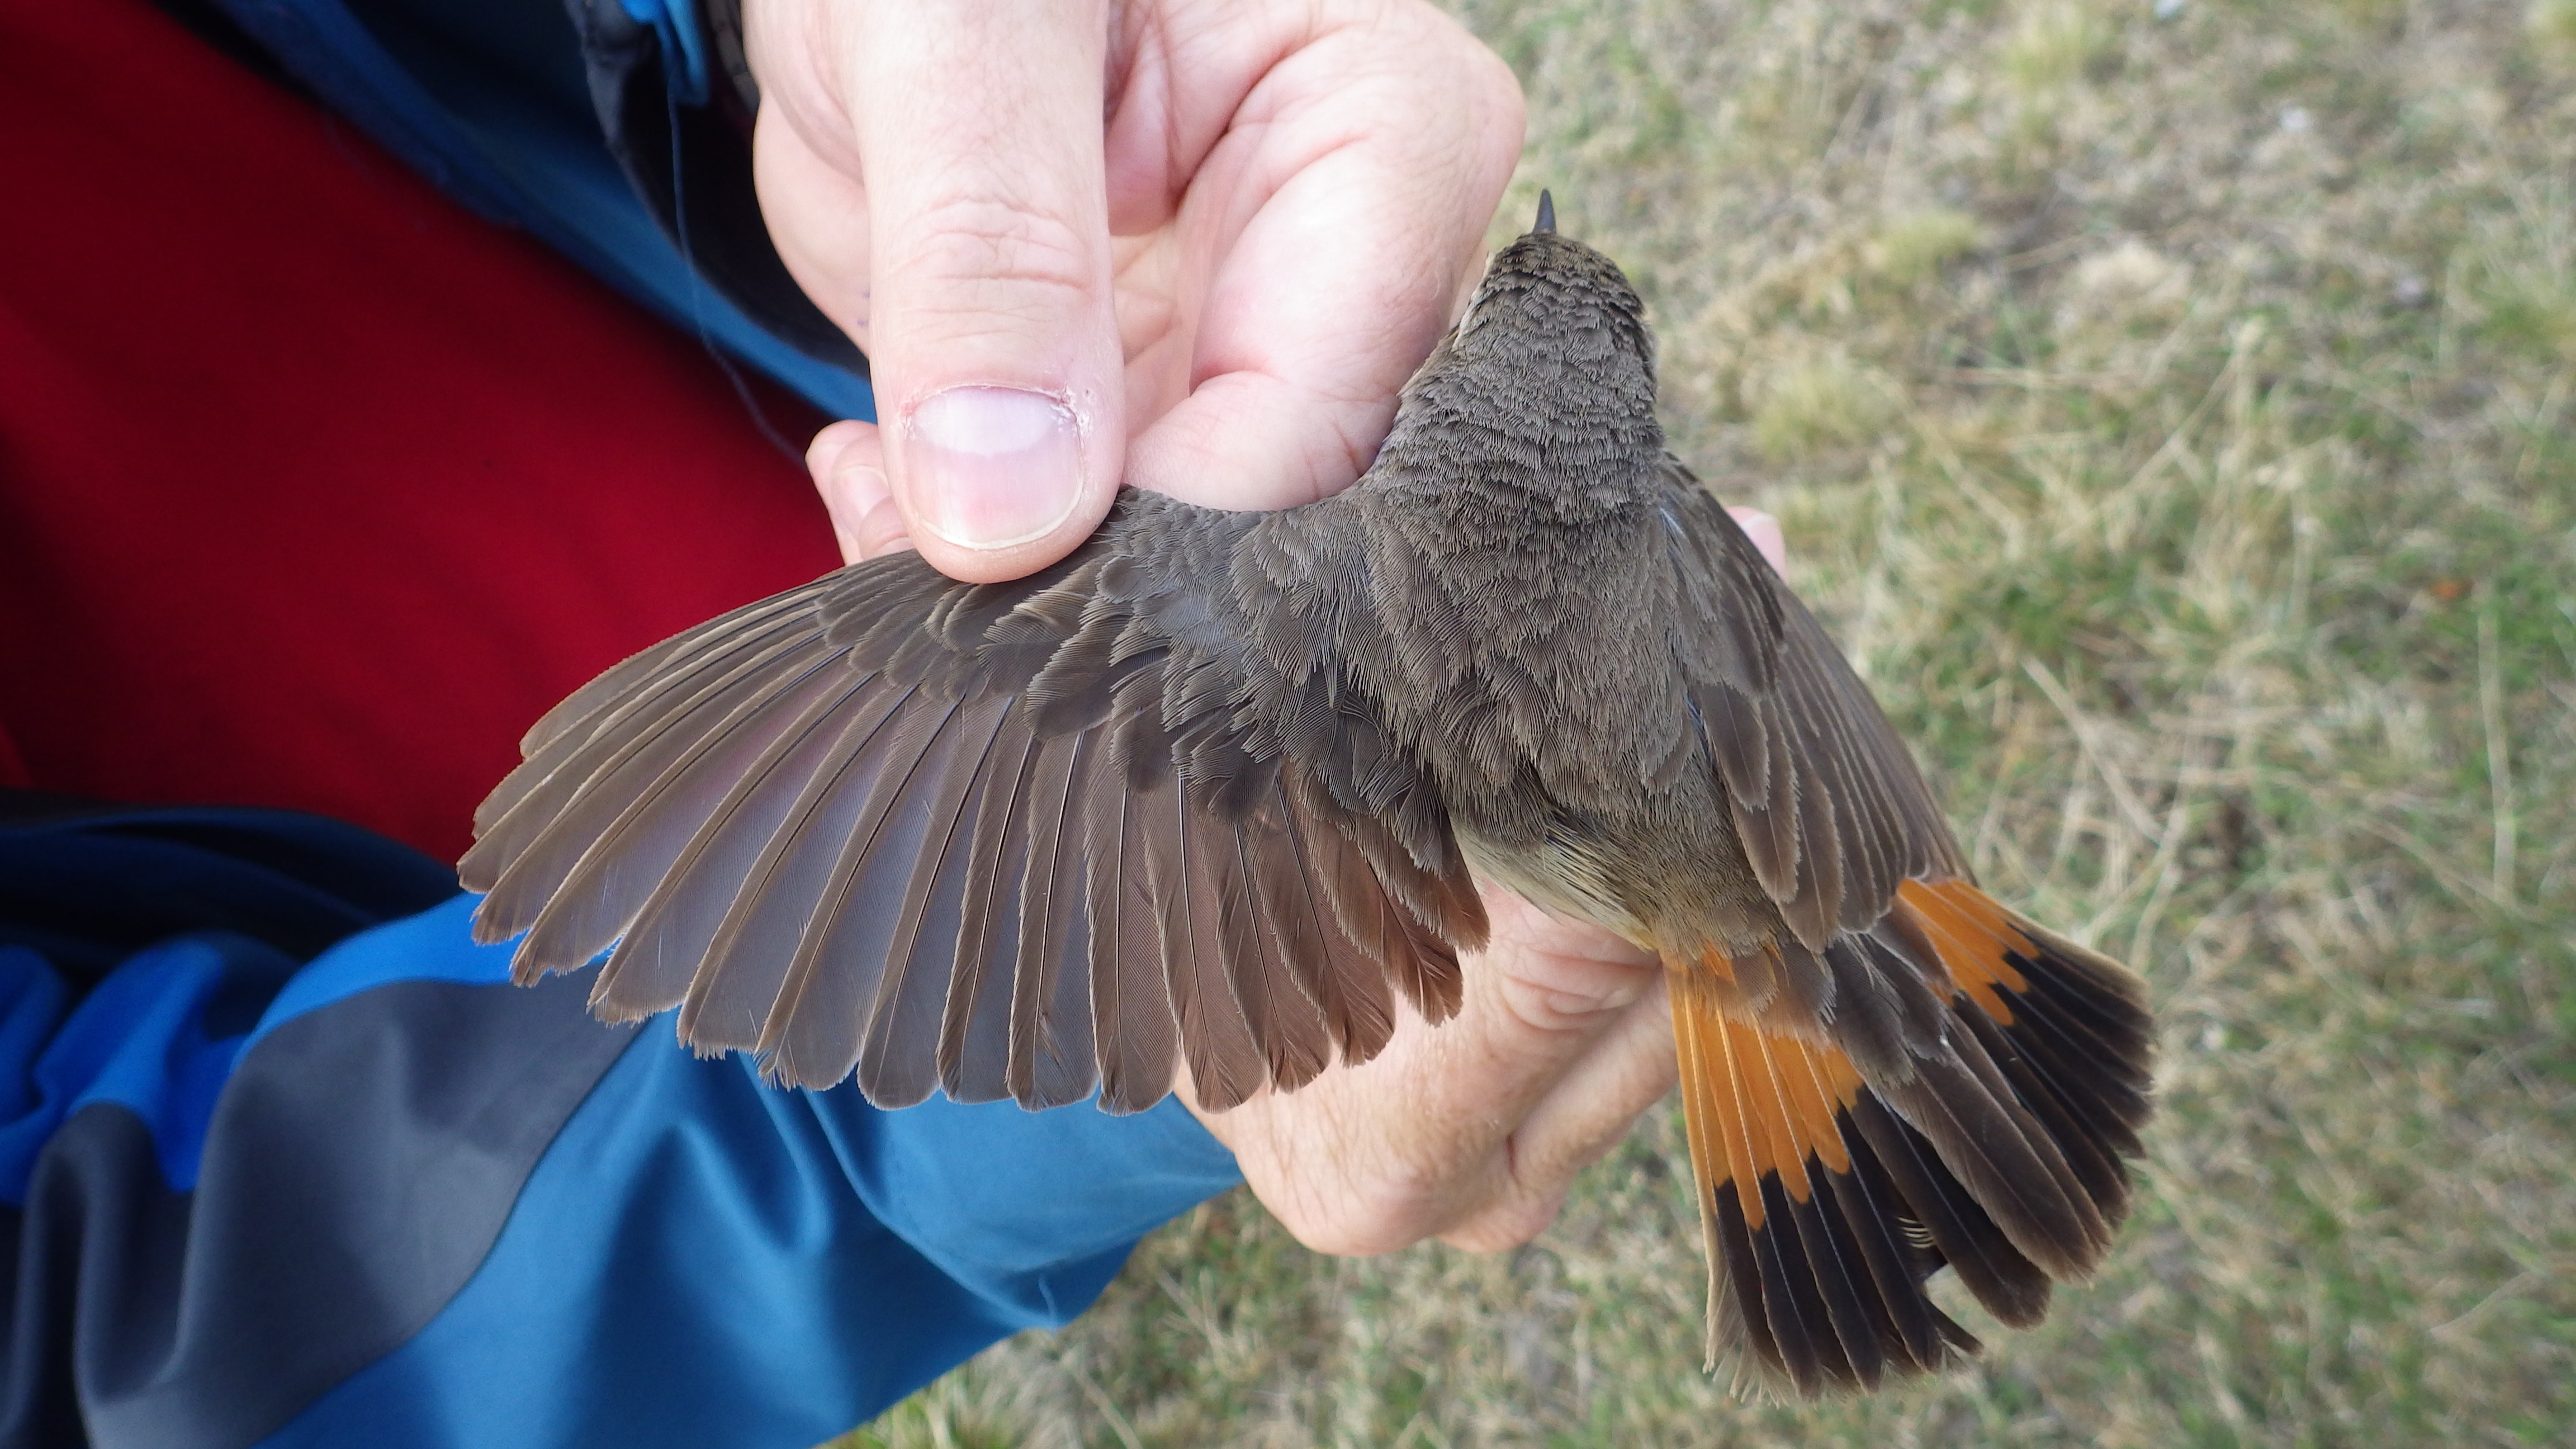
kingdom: Animalia
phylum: Chordata
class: Aves
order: Passeriformes
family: Muscicapidae
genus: Luscinia
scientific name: Luscinia svecica
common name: Bluethroat
